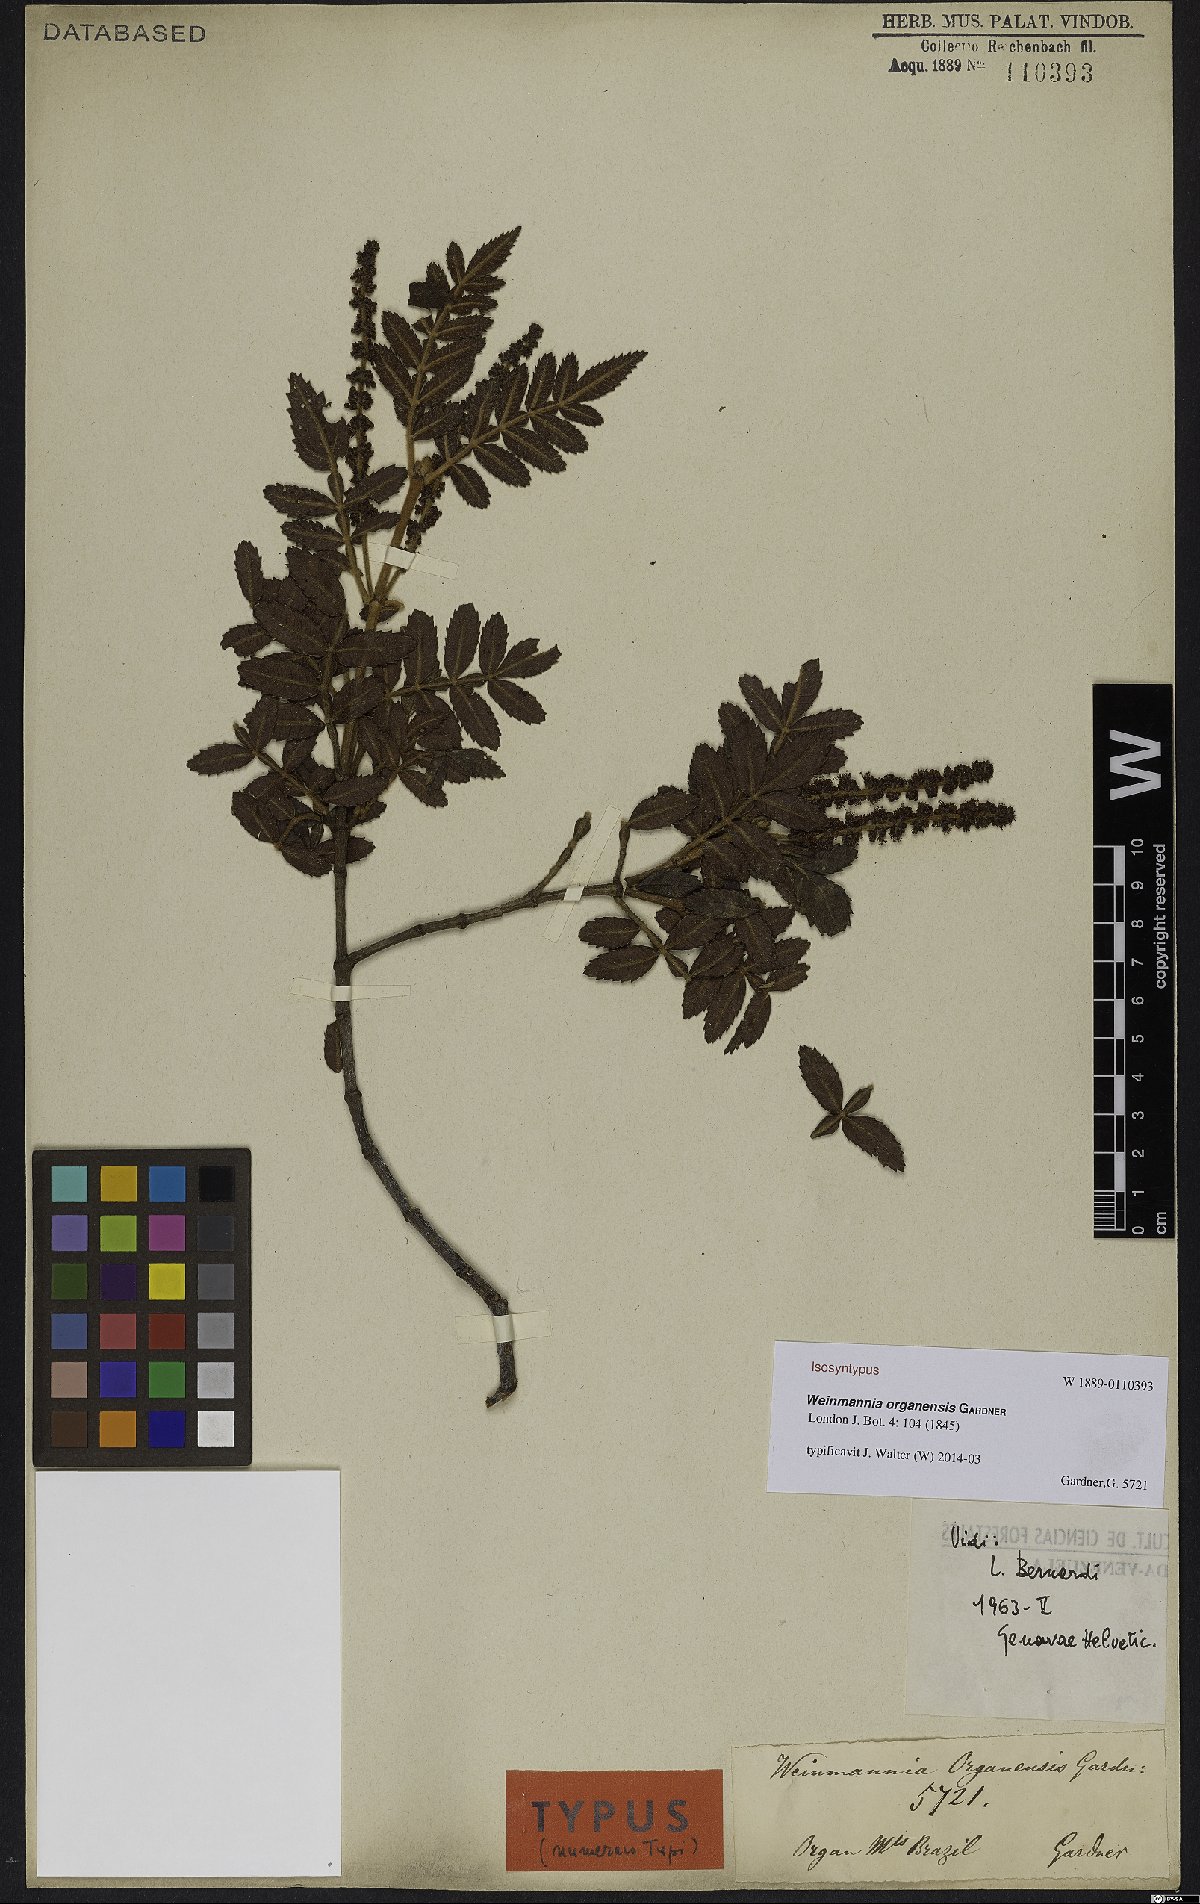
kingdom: Plantae
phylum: Tracheophyta
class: Magnoliopsida
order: Oxalidales
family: Cunoniaceae
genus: Weinmannia
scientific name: Weinmannia organensis
